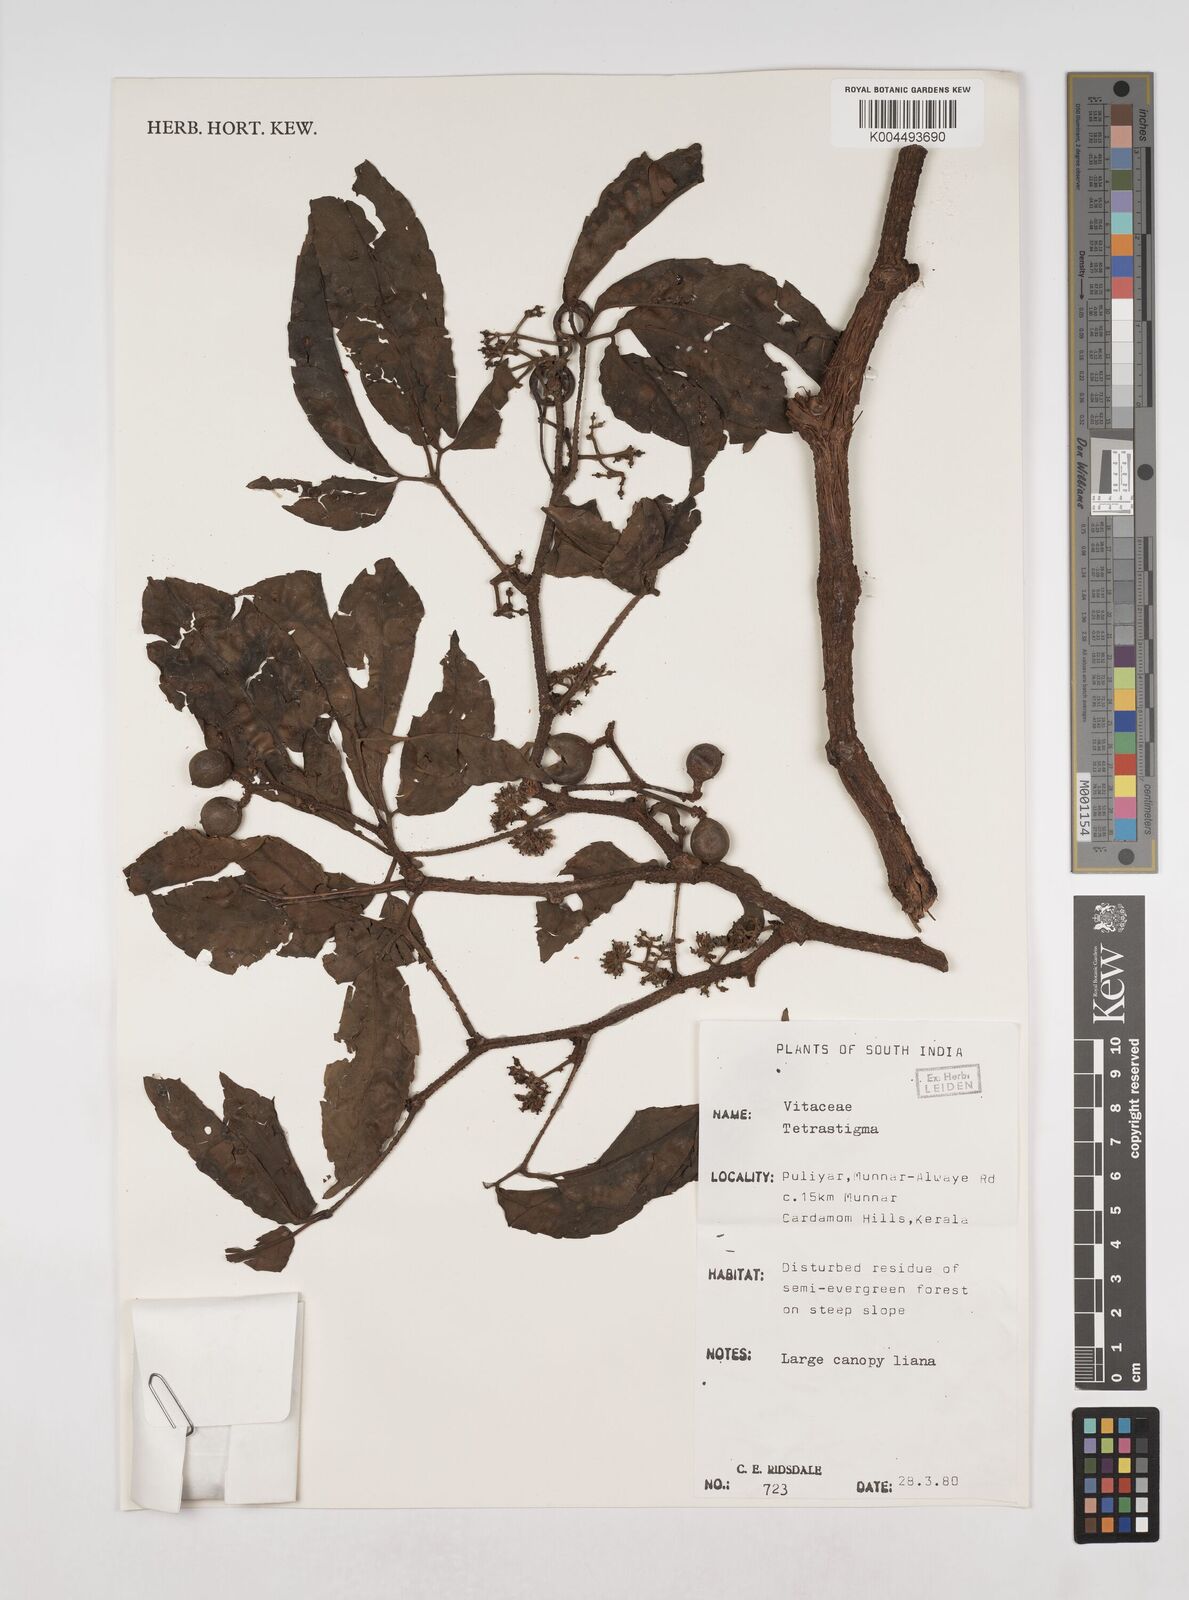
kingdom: Plantae
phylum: Tracheophyta
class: Magnoliopsida
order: Vitales
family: Vitaceae
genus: Tetrastigma
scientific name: Tetrastigma
